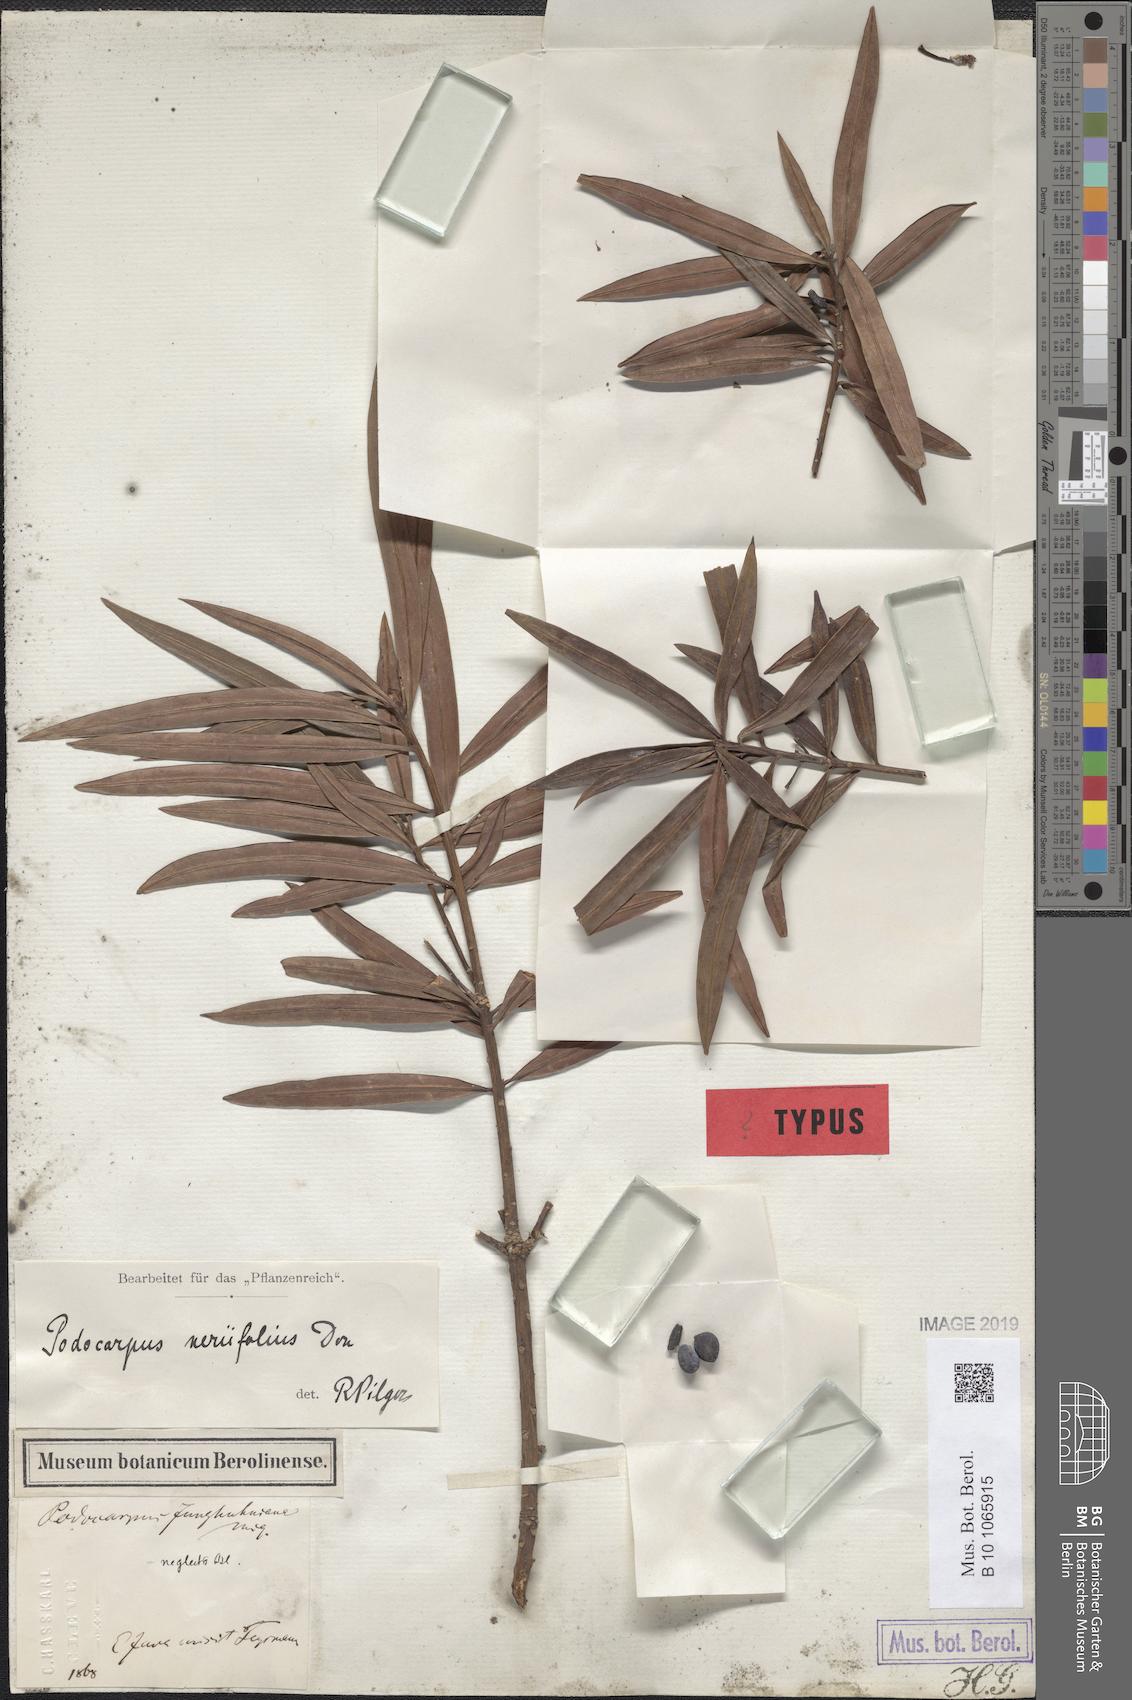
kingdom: Plantae
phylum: Tracheophyta
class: Pinopsida
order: Pinales
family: Podocarpaceae
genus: Podocarpus
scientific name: Podocarpus neriifolius
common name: Brown pine
